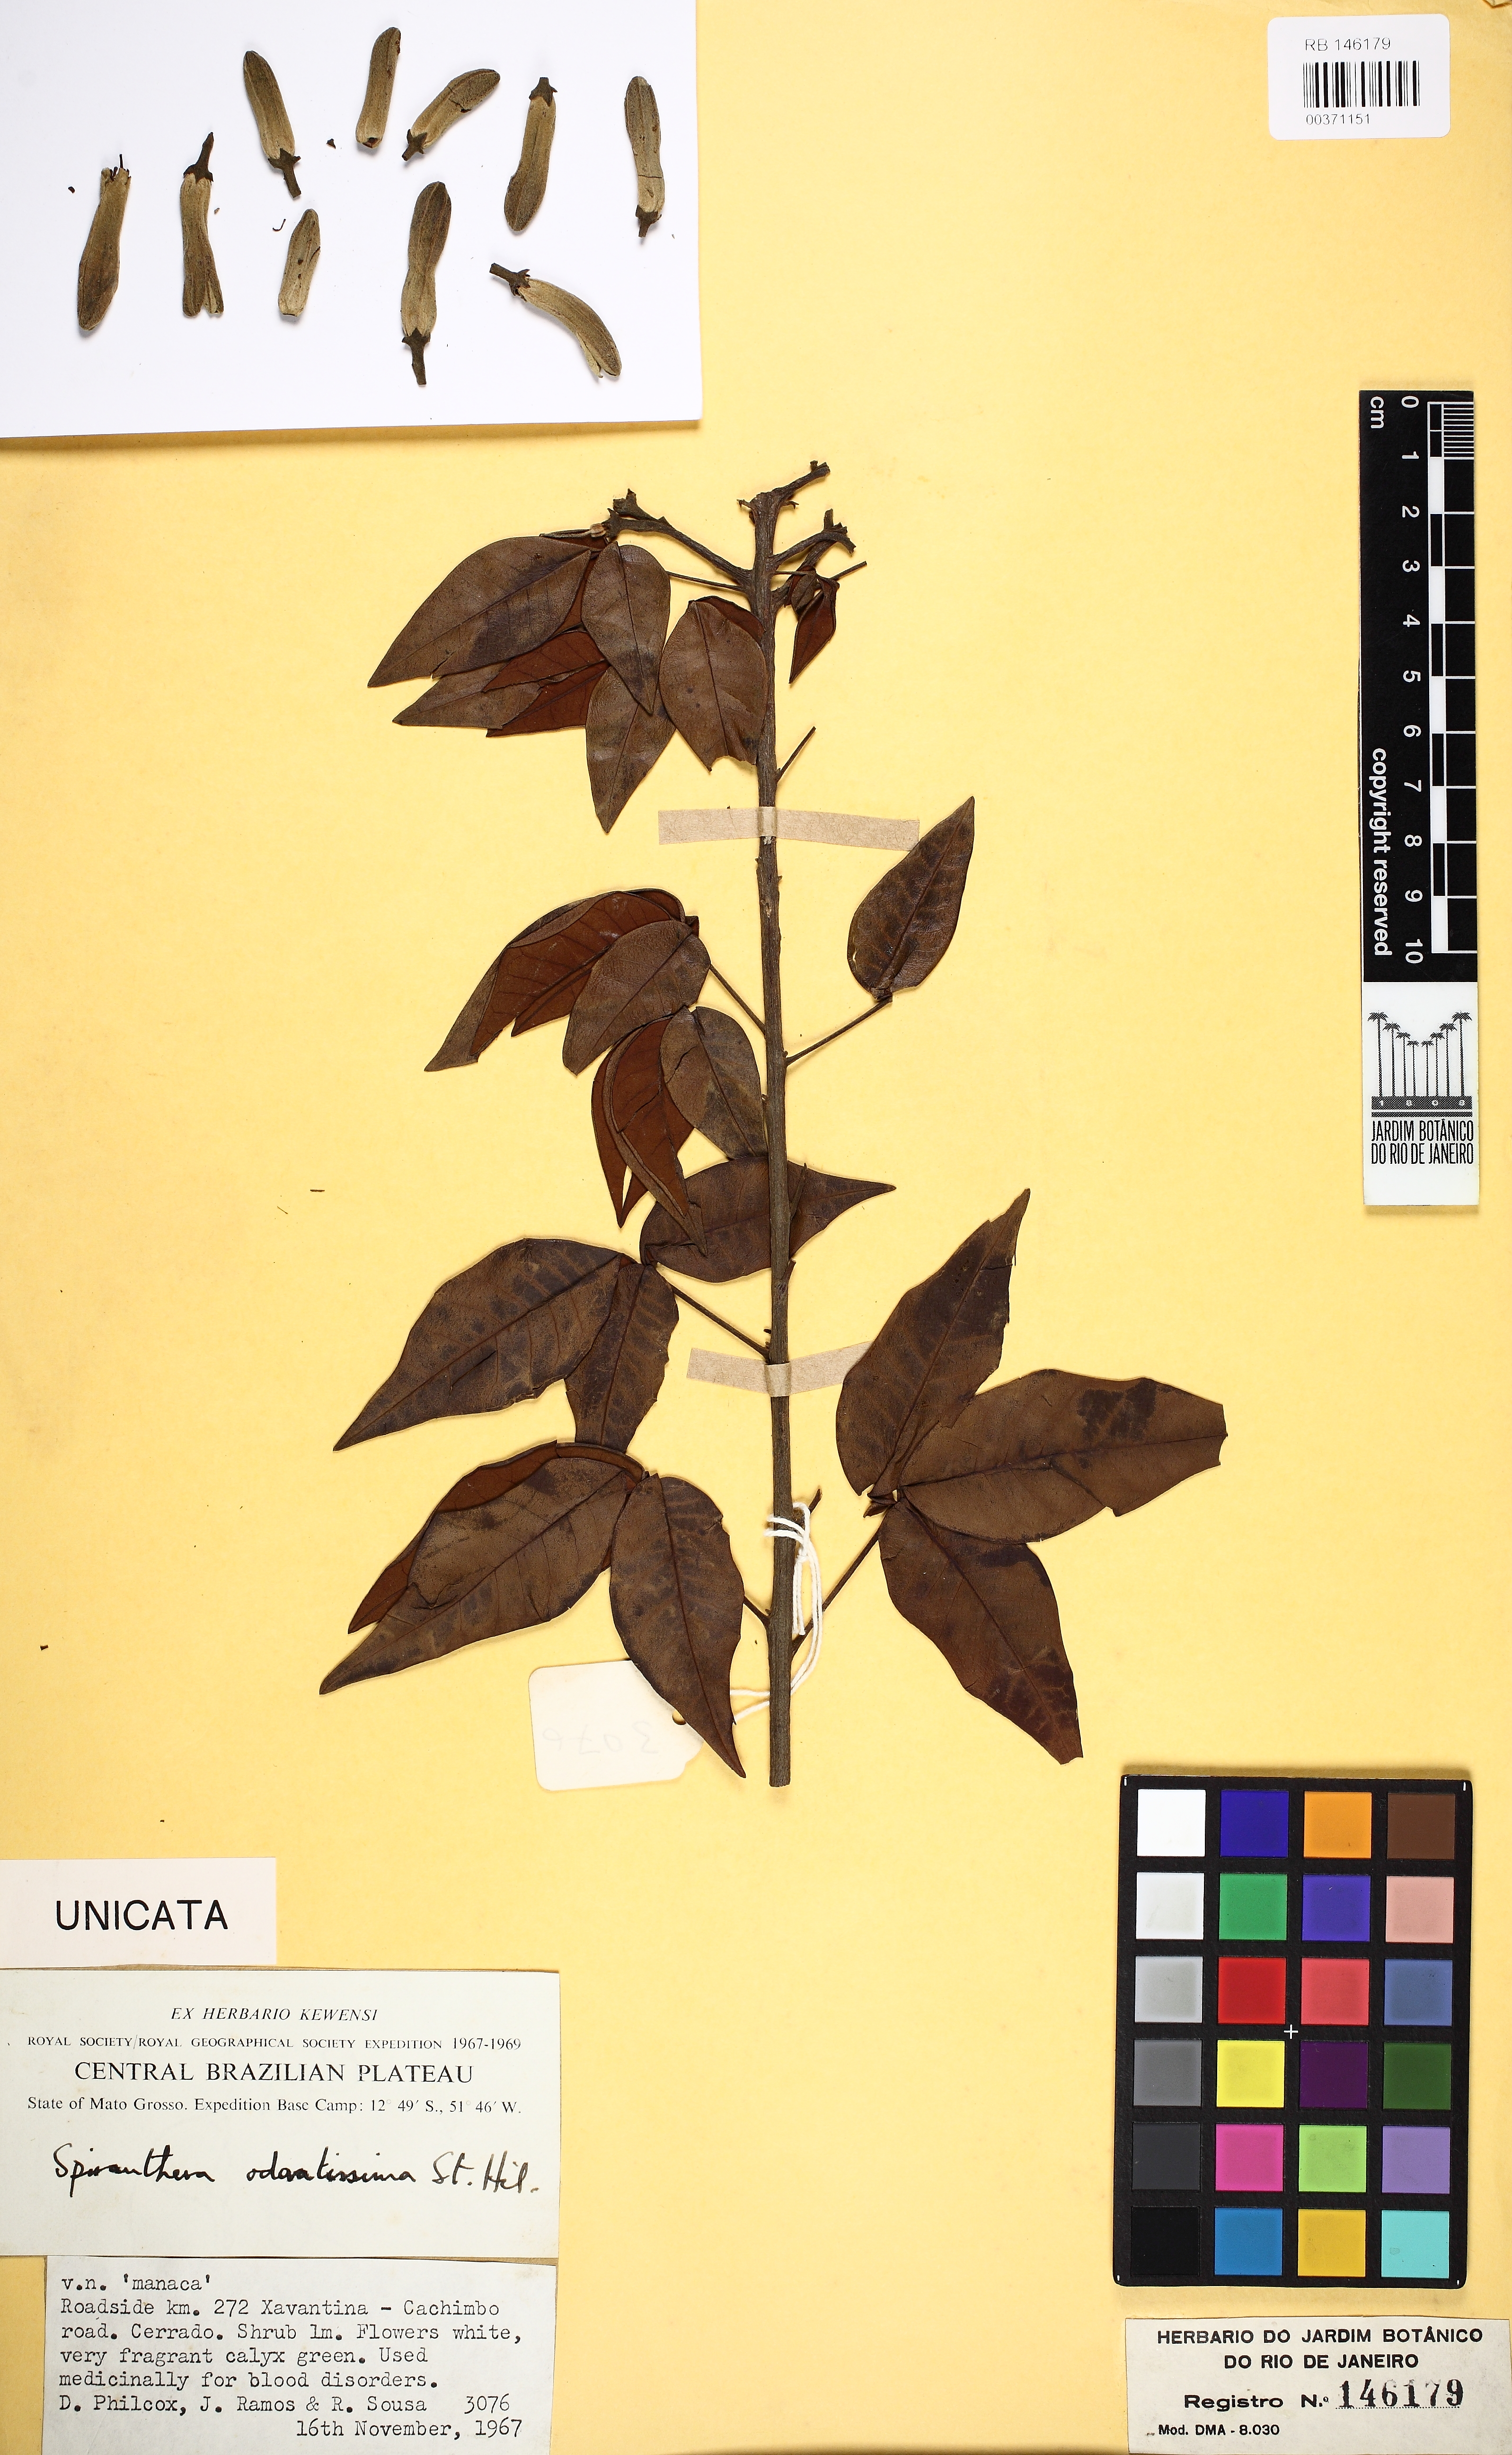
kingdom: Plantae
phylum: Tracheophyta
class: Magnoliopsida
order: Sapindales
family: Rutaceae
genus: Spiranthera
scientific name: Spiranthera odoratissima
